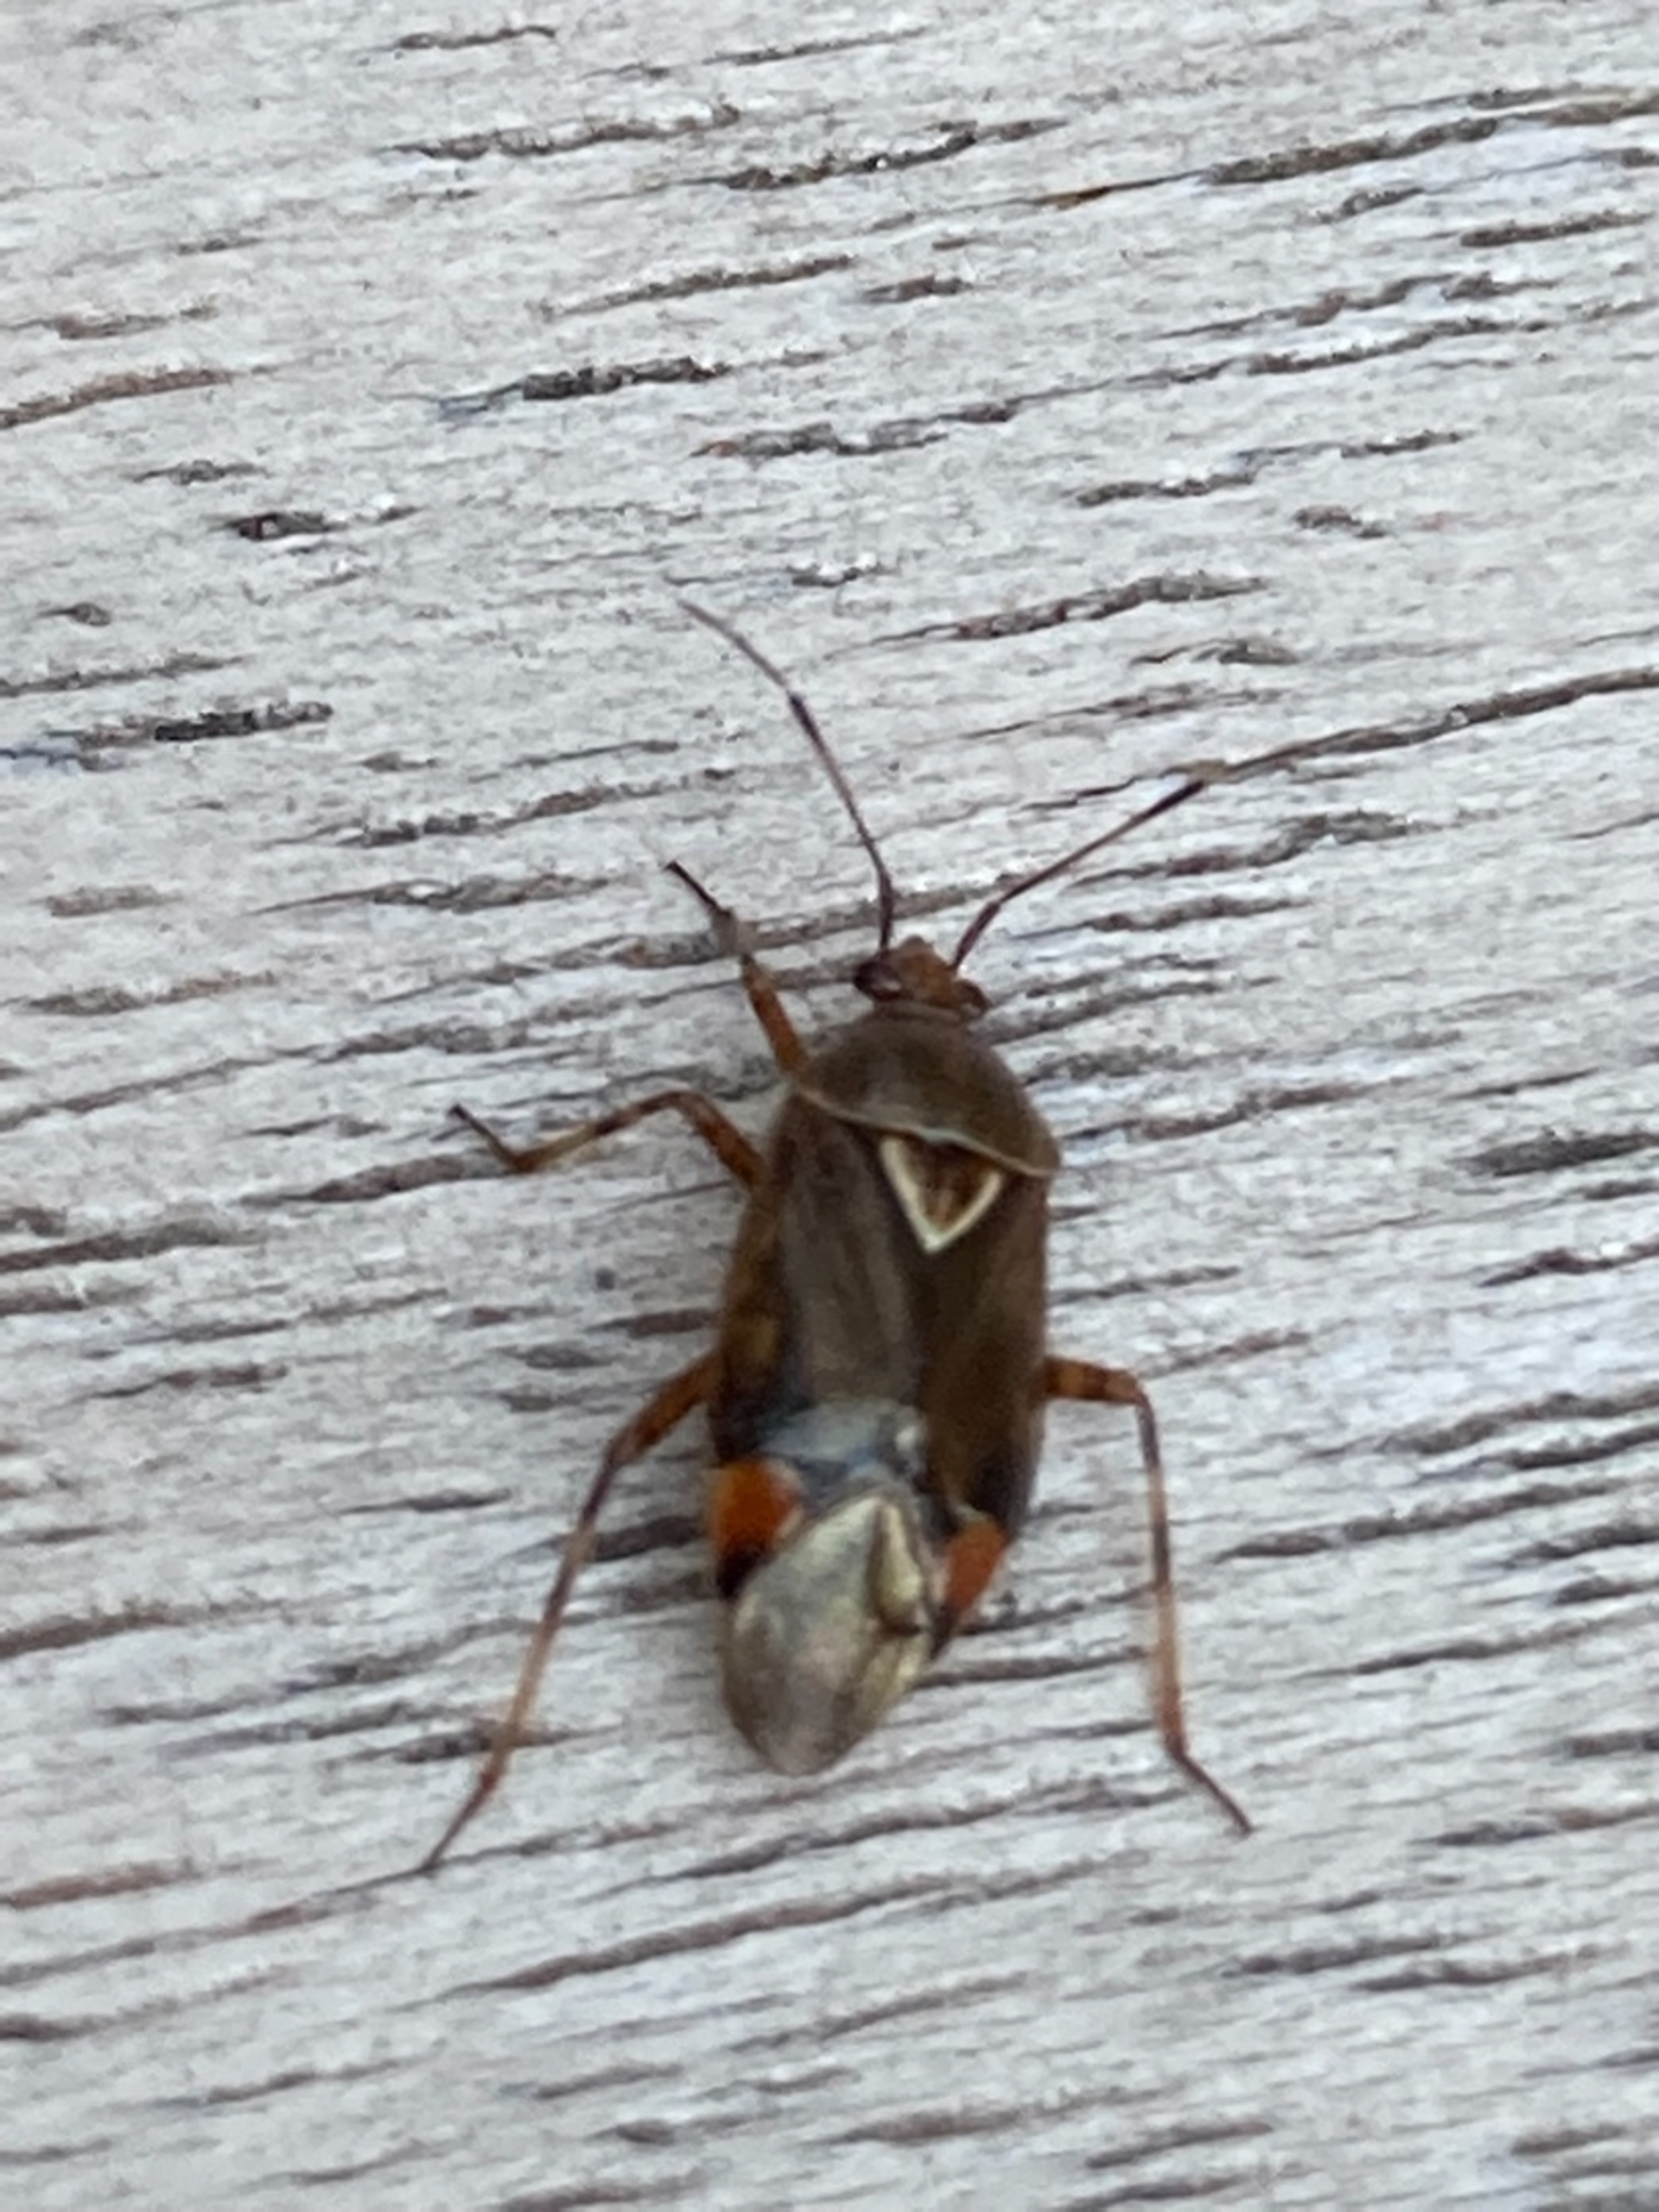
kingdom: Animalia
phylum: Arthropoda
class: Insecta
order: Hemiptera
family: Miridae
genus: Deraeocoris
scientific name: Deraeocoris flavilinea
